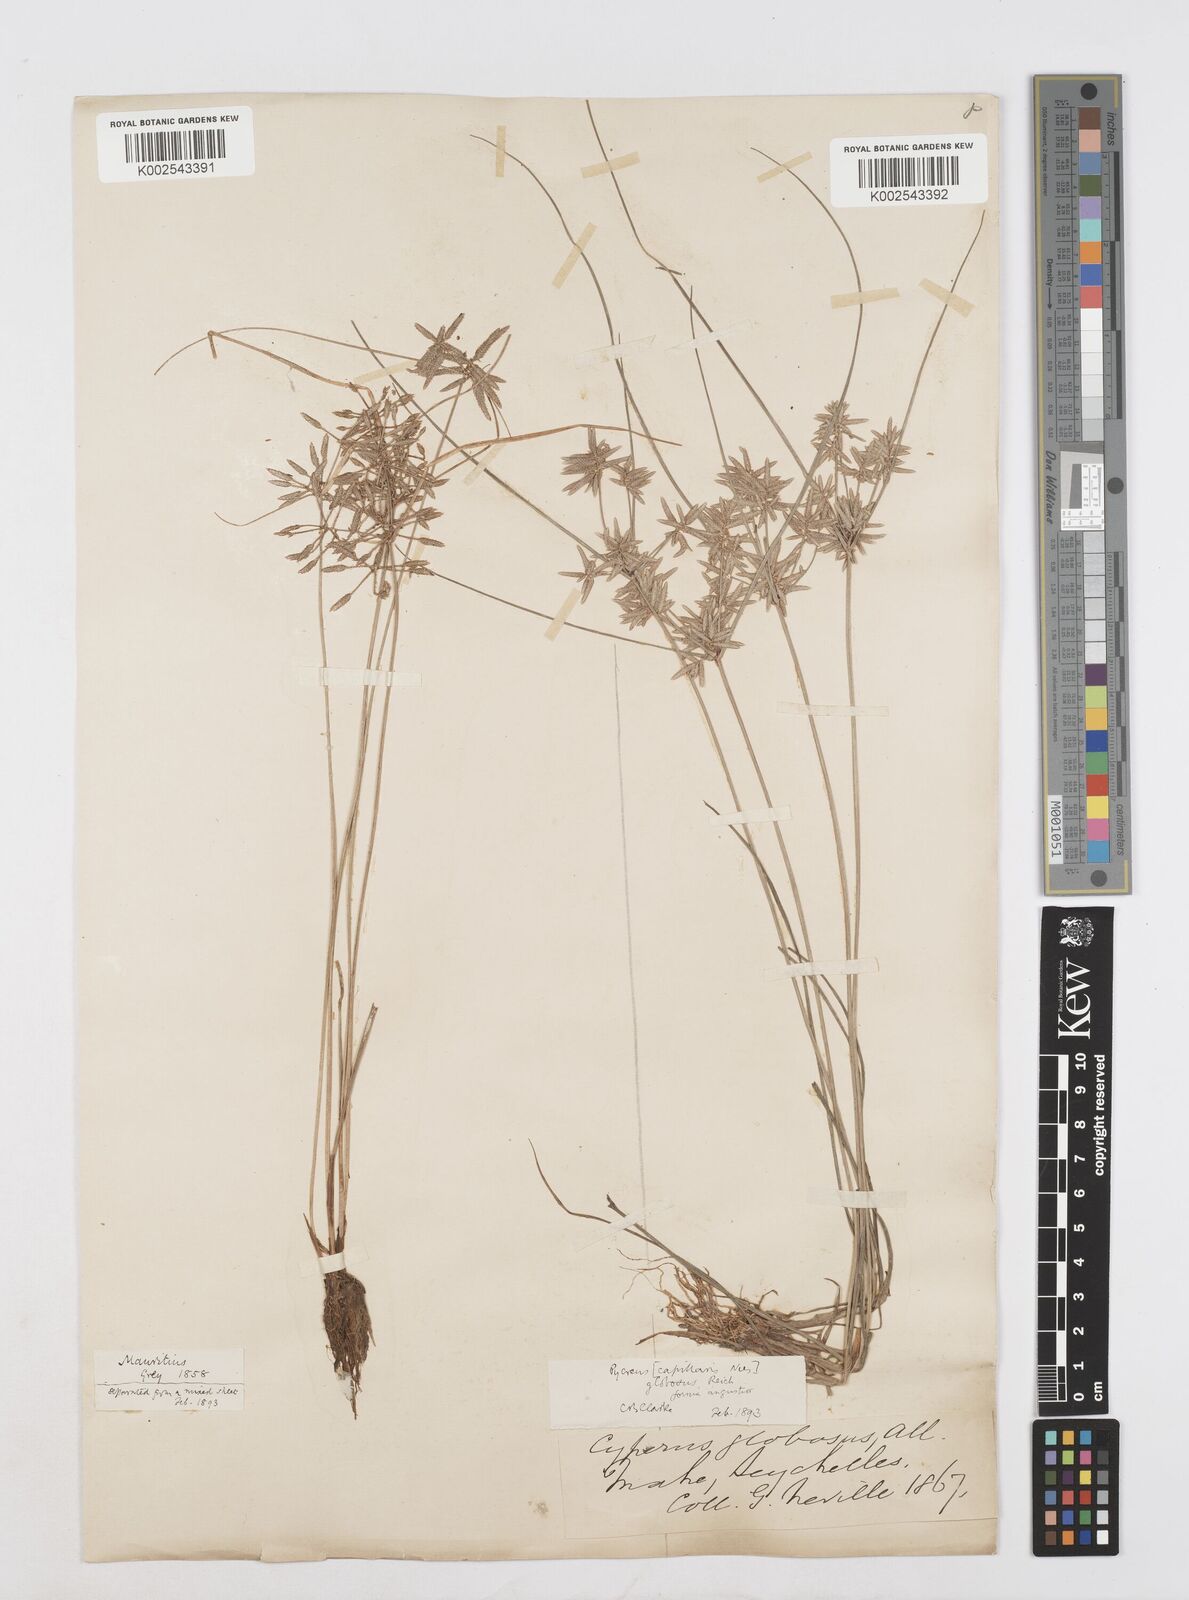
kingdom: Plantae
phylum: Tracheophyta
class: Liliopsida
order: Poales
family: Cyperaceae
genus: Cyperus
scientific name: Cyperus flavidus
